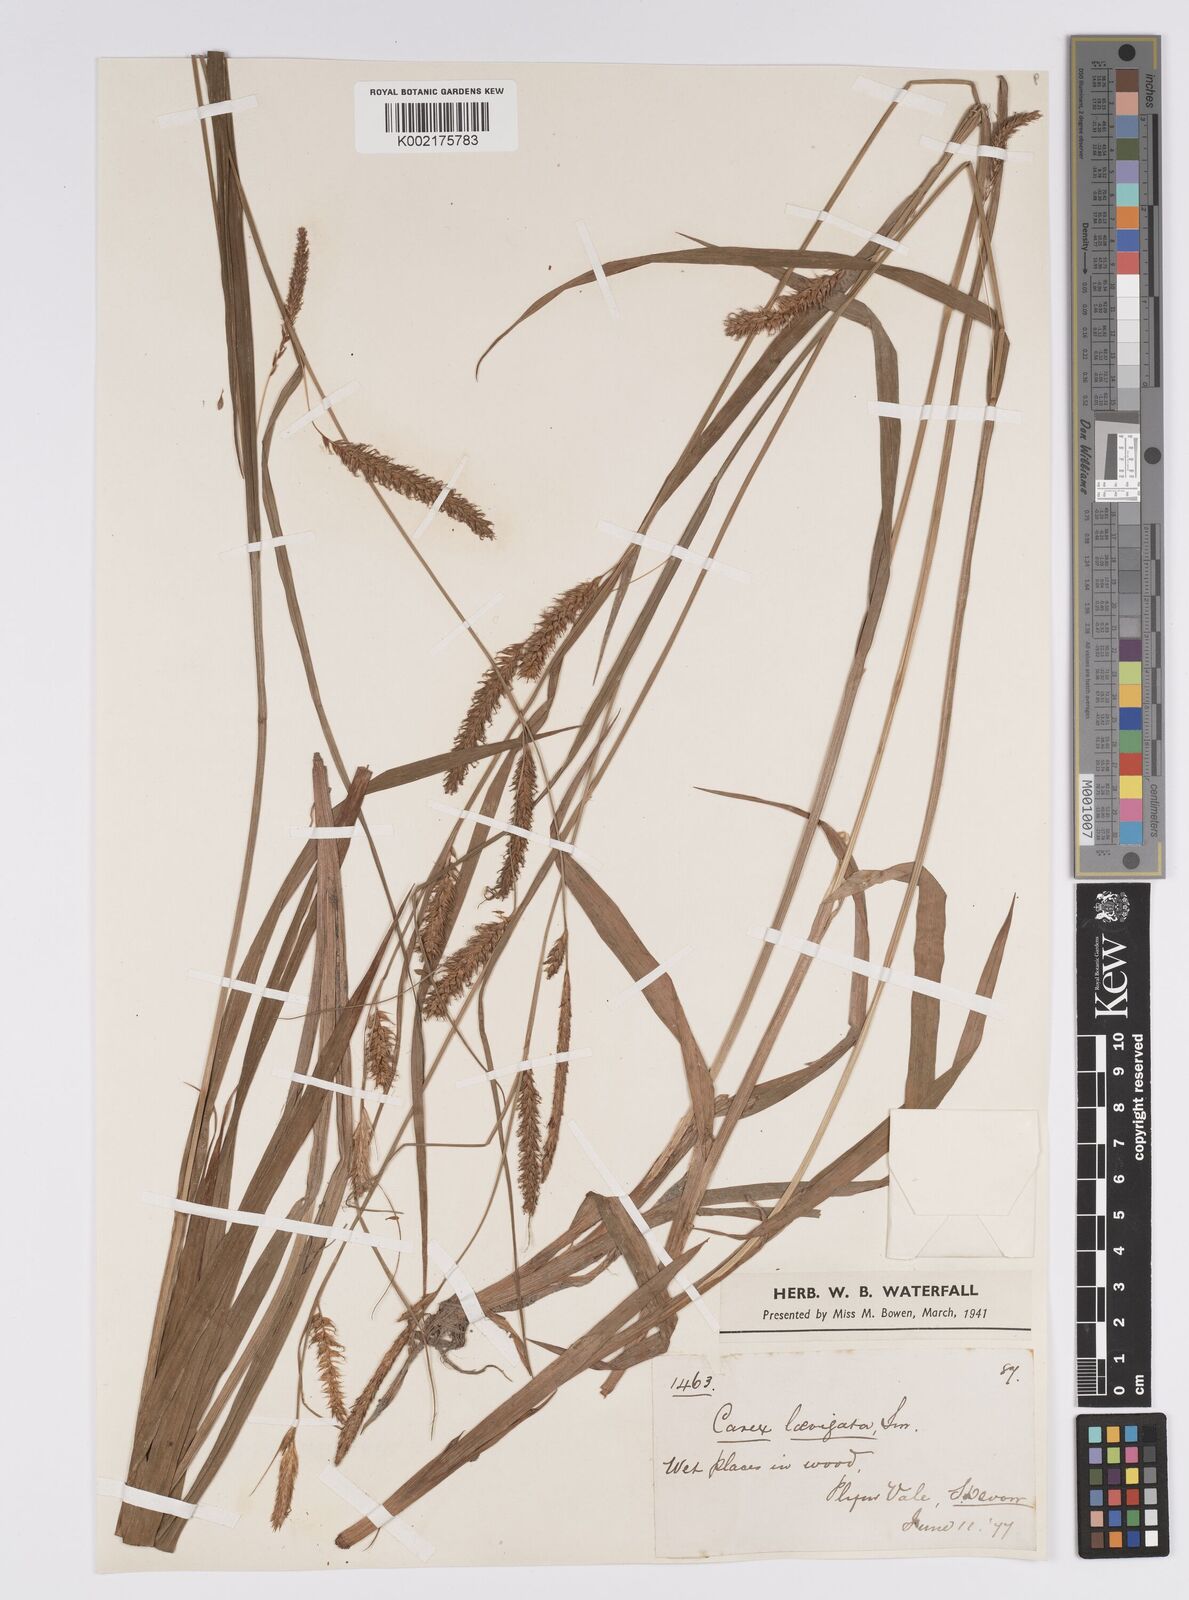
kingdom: Plantae
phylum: Tracheophyta
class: Liliopsida
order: Poales
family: Cyperaceae
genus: Carex
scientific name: Carex laevigata
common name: Smooth-stalked sedge
